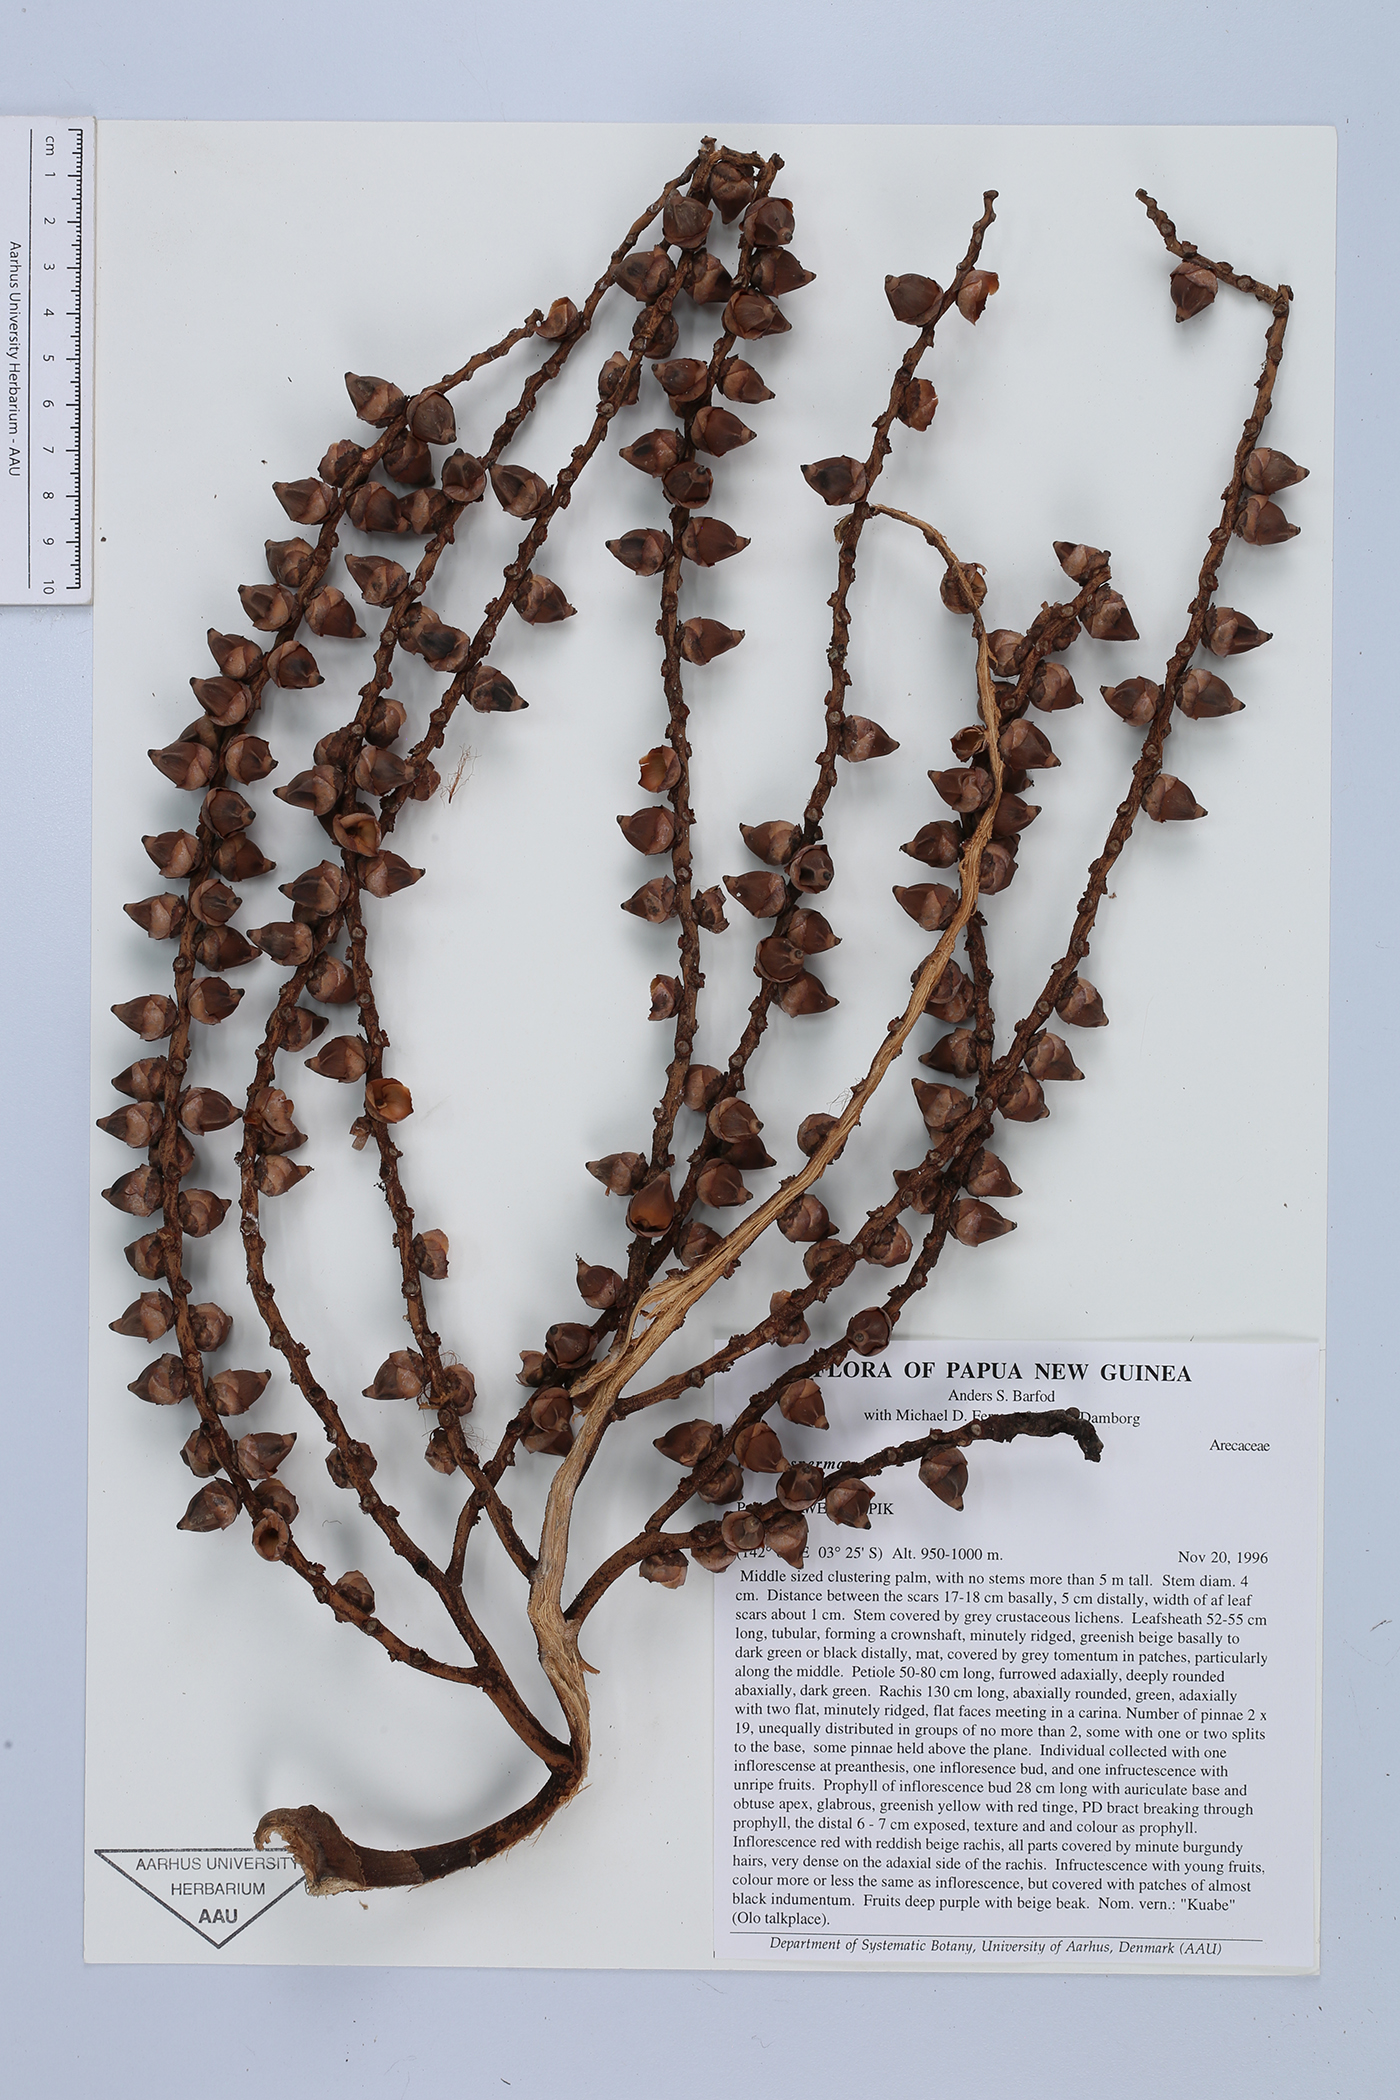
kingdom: Plantae
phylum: Tracheophyta
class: Liliopsida
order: Arecales
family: Arecaceae
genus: Ptychosperma
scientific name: Ptychosperma
